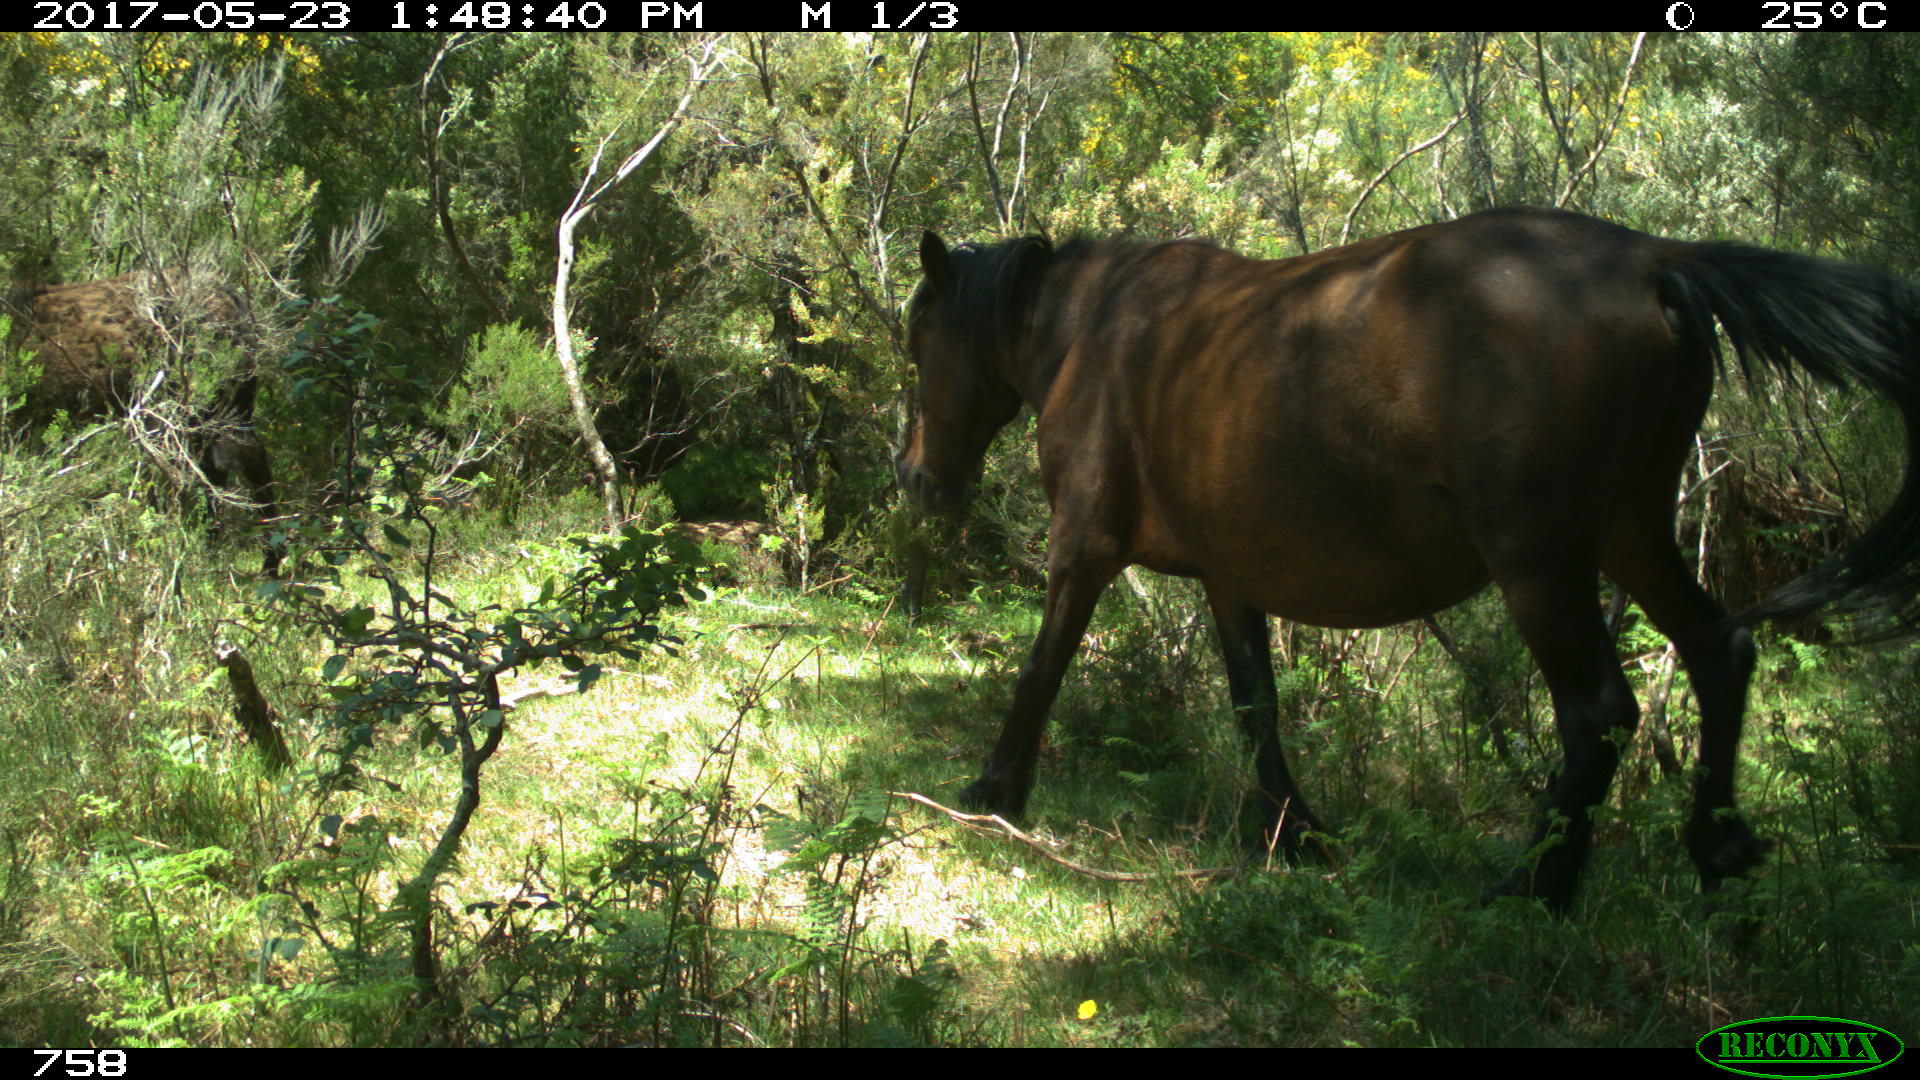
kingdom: Animalia
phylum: Chordata
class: Mammalia
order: Perissodactyla
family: Equidae
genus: Equus
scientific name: Equus caballus
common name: Horse
